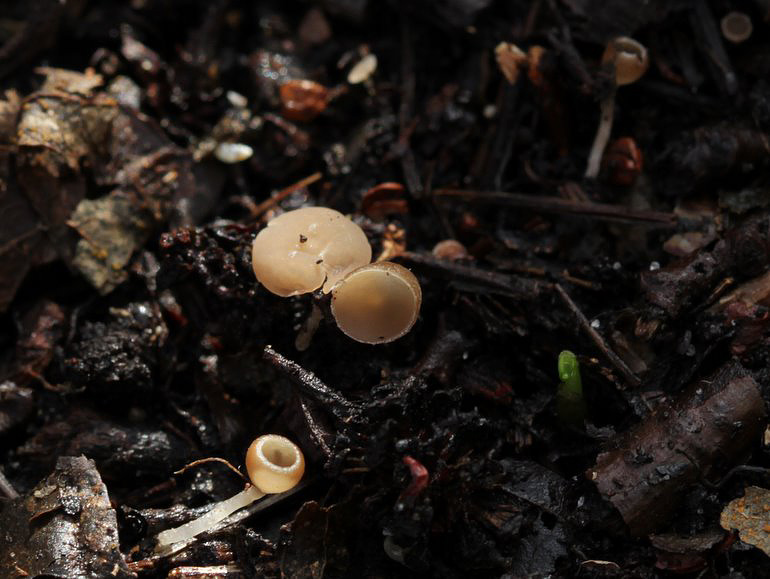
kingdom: Fungi
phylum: Ascomycota
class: Leotiomycetes
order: Helotiales
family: Sclerotiniaceae
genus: Ciboria
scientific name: Ciboria amentacea
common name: ellerakle-knoldskive
